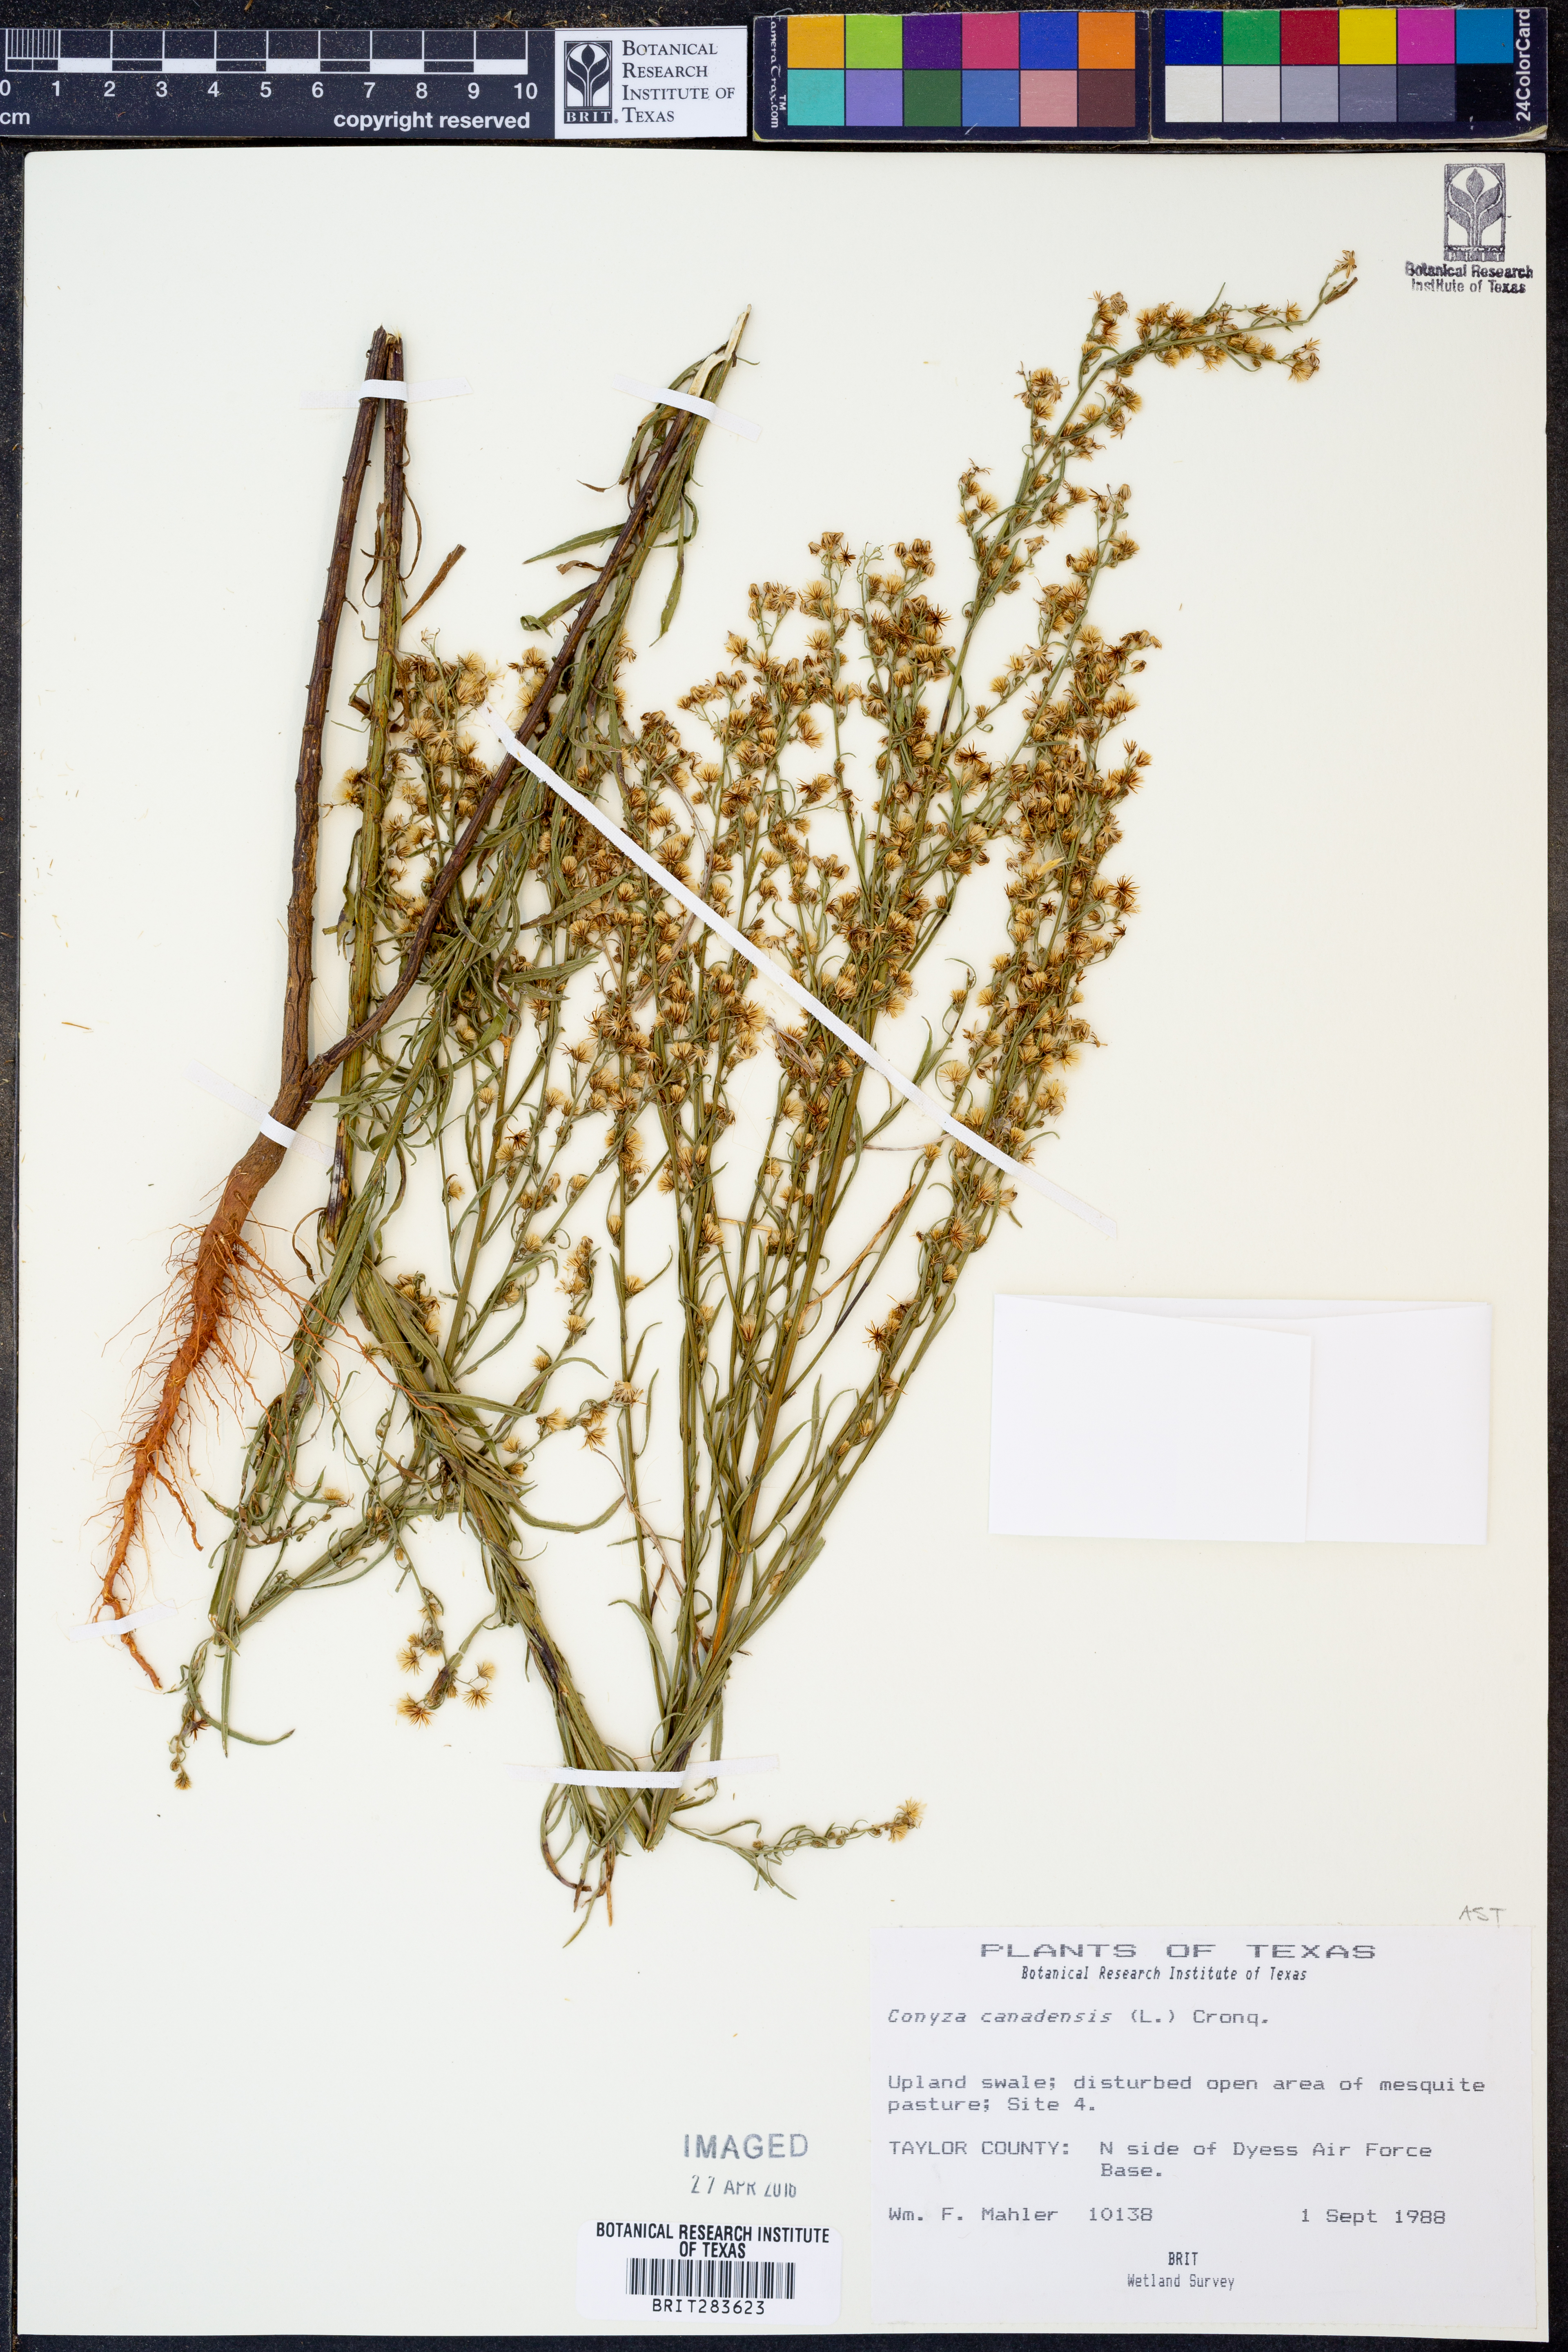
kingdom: Plantae
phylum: Tracheophyta
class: Magnoliopsida
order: Asterales
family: Asteraceae
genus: Erigeron
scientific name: Erigeron canadensis
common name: Canadian fleabane
